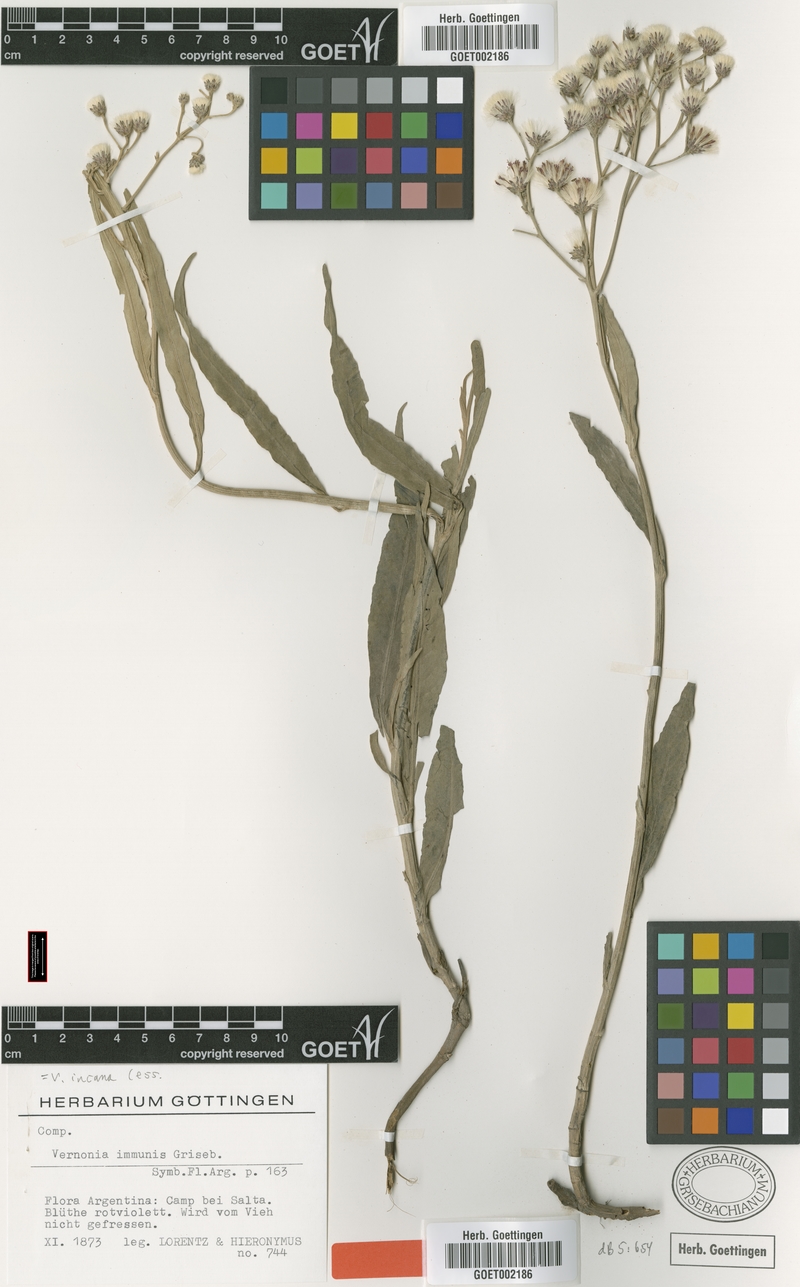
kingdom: Plantae
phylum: Tracheophyta
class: Magnoliopsida
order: Asterales
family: Asteraceae
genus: Vernonia
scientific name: Vernonia incana
